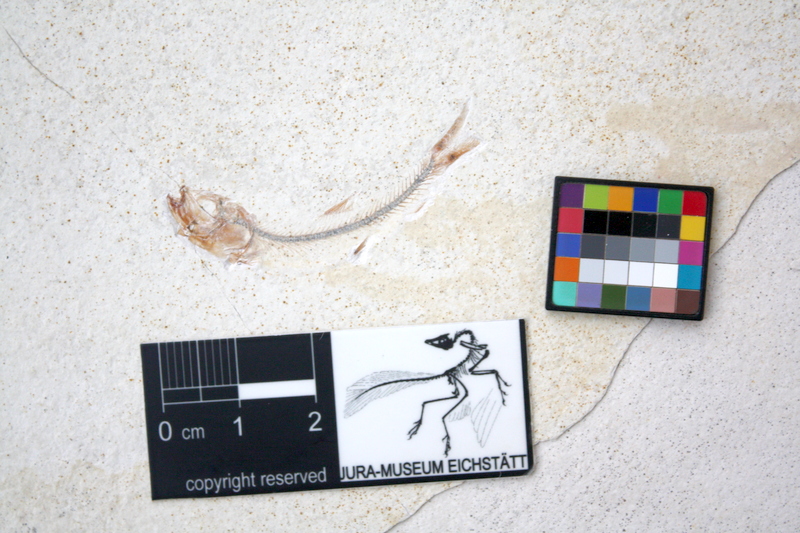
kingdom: Animalia
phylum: Chordata
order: Salmoniformes
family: Orthogonikleithridae
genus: Orthogonikleithrus
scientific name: Orthogonikleithrus hoelli
